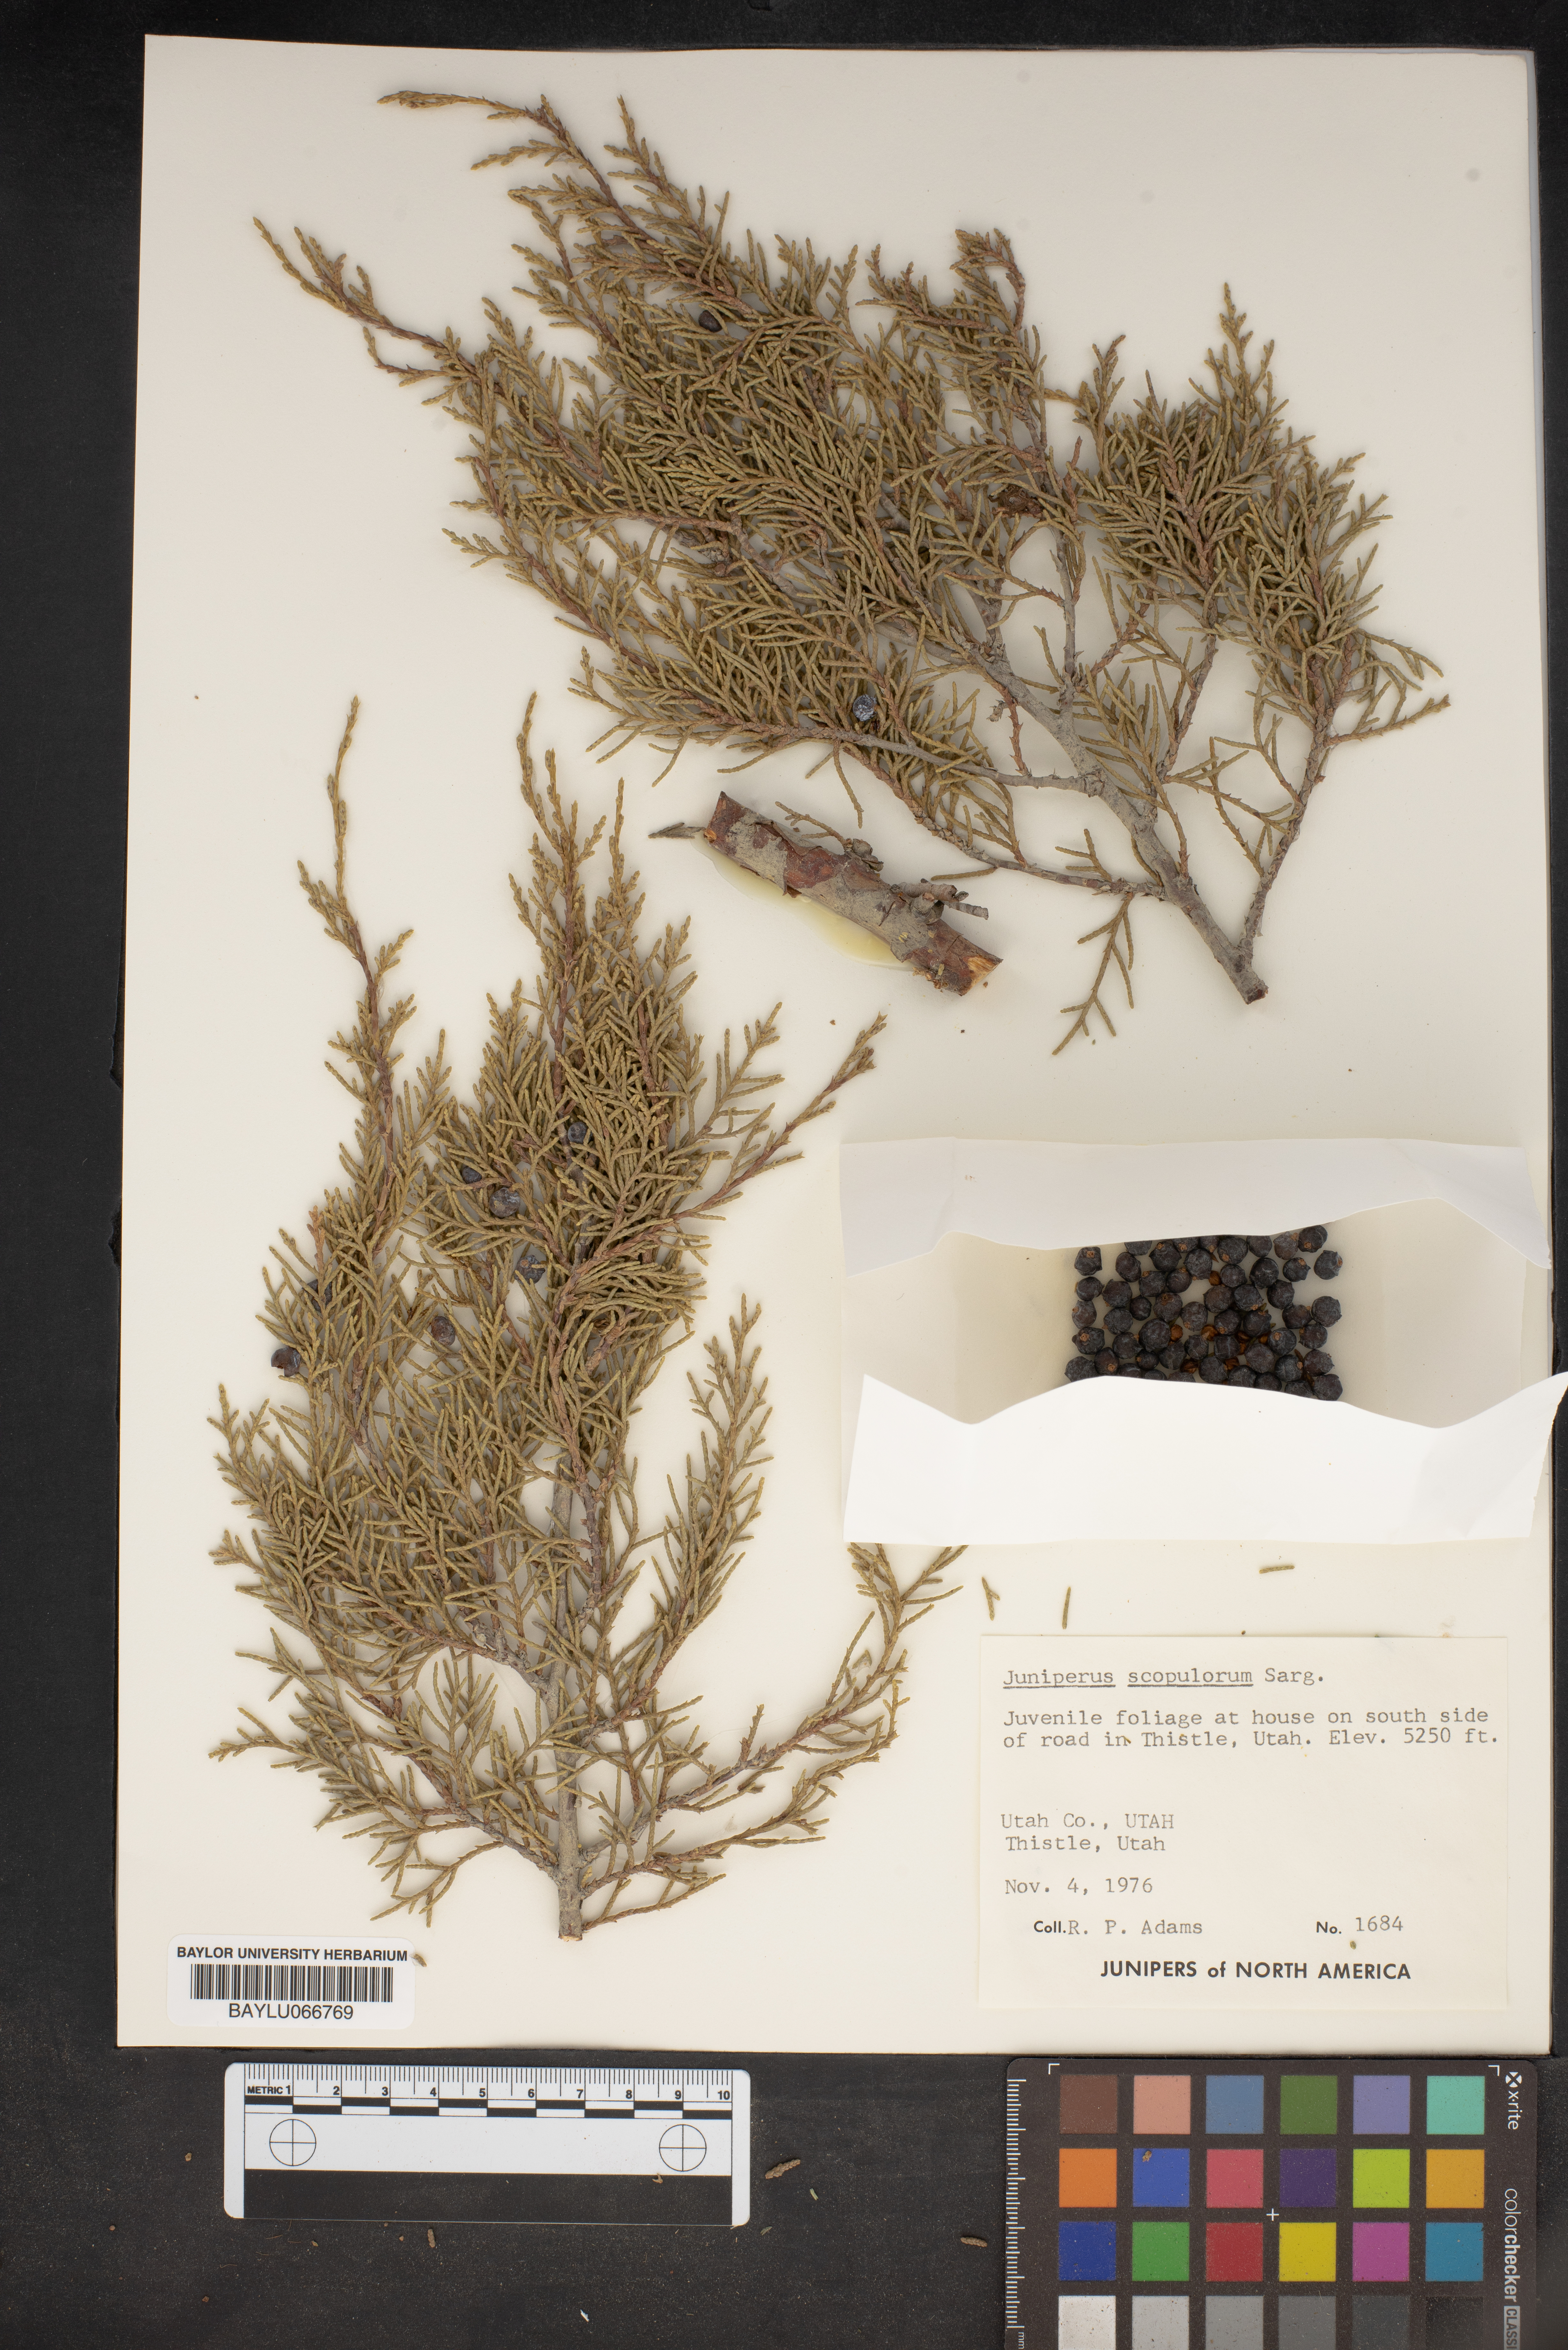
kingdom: Plantae
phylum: Tracheophyta
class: Pinopsida
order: Pinales
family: Cupressaceae
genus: Juniperus
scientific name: Juniperus scopulorum
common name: Rocky mountain juniper
